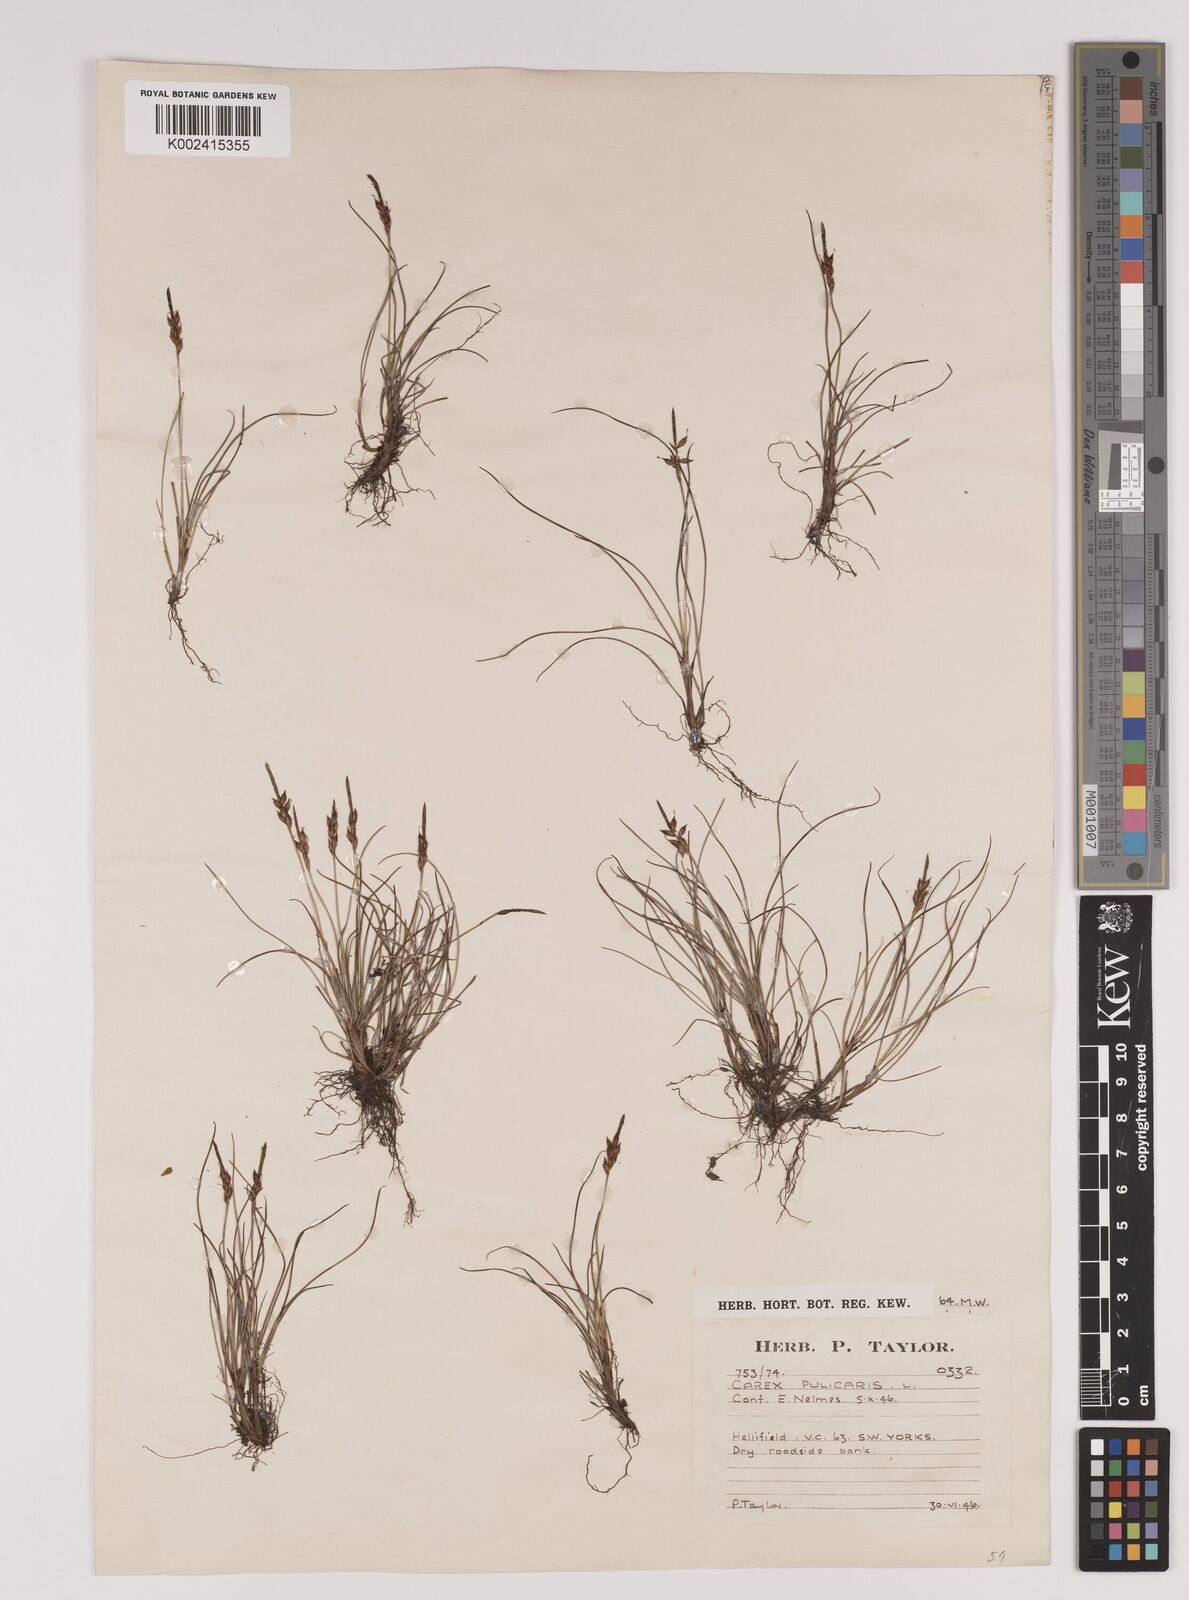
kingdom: Plantae
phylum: Tracheophyta
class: Liliopsida
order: Poales
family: Cyperaceae
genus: Carex
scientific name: Carex pulicaris
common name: Flea sedge
